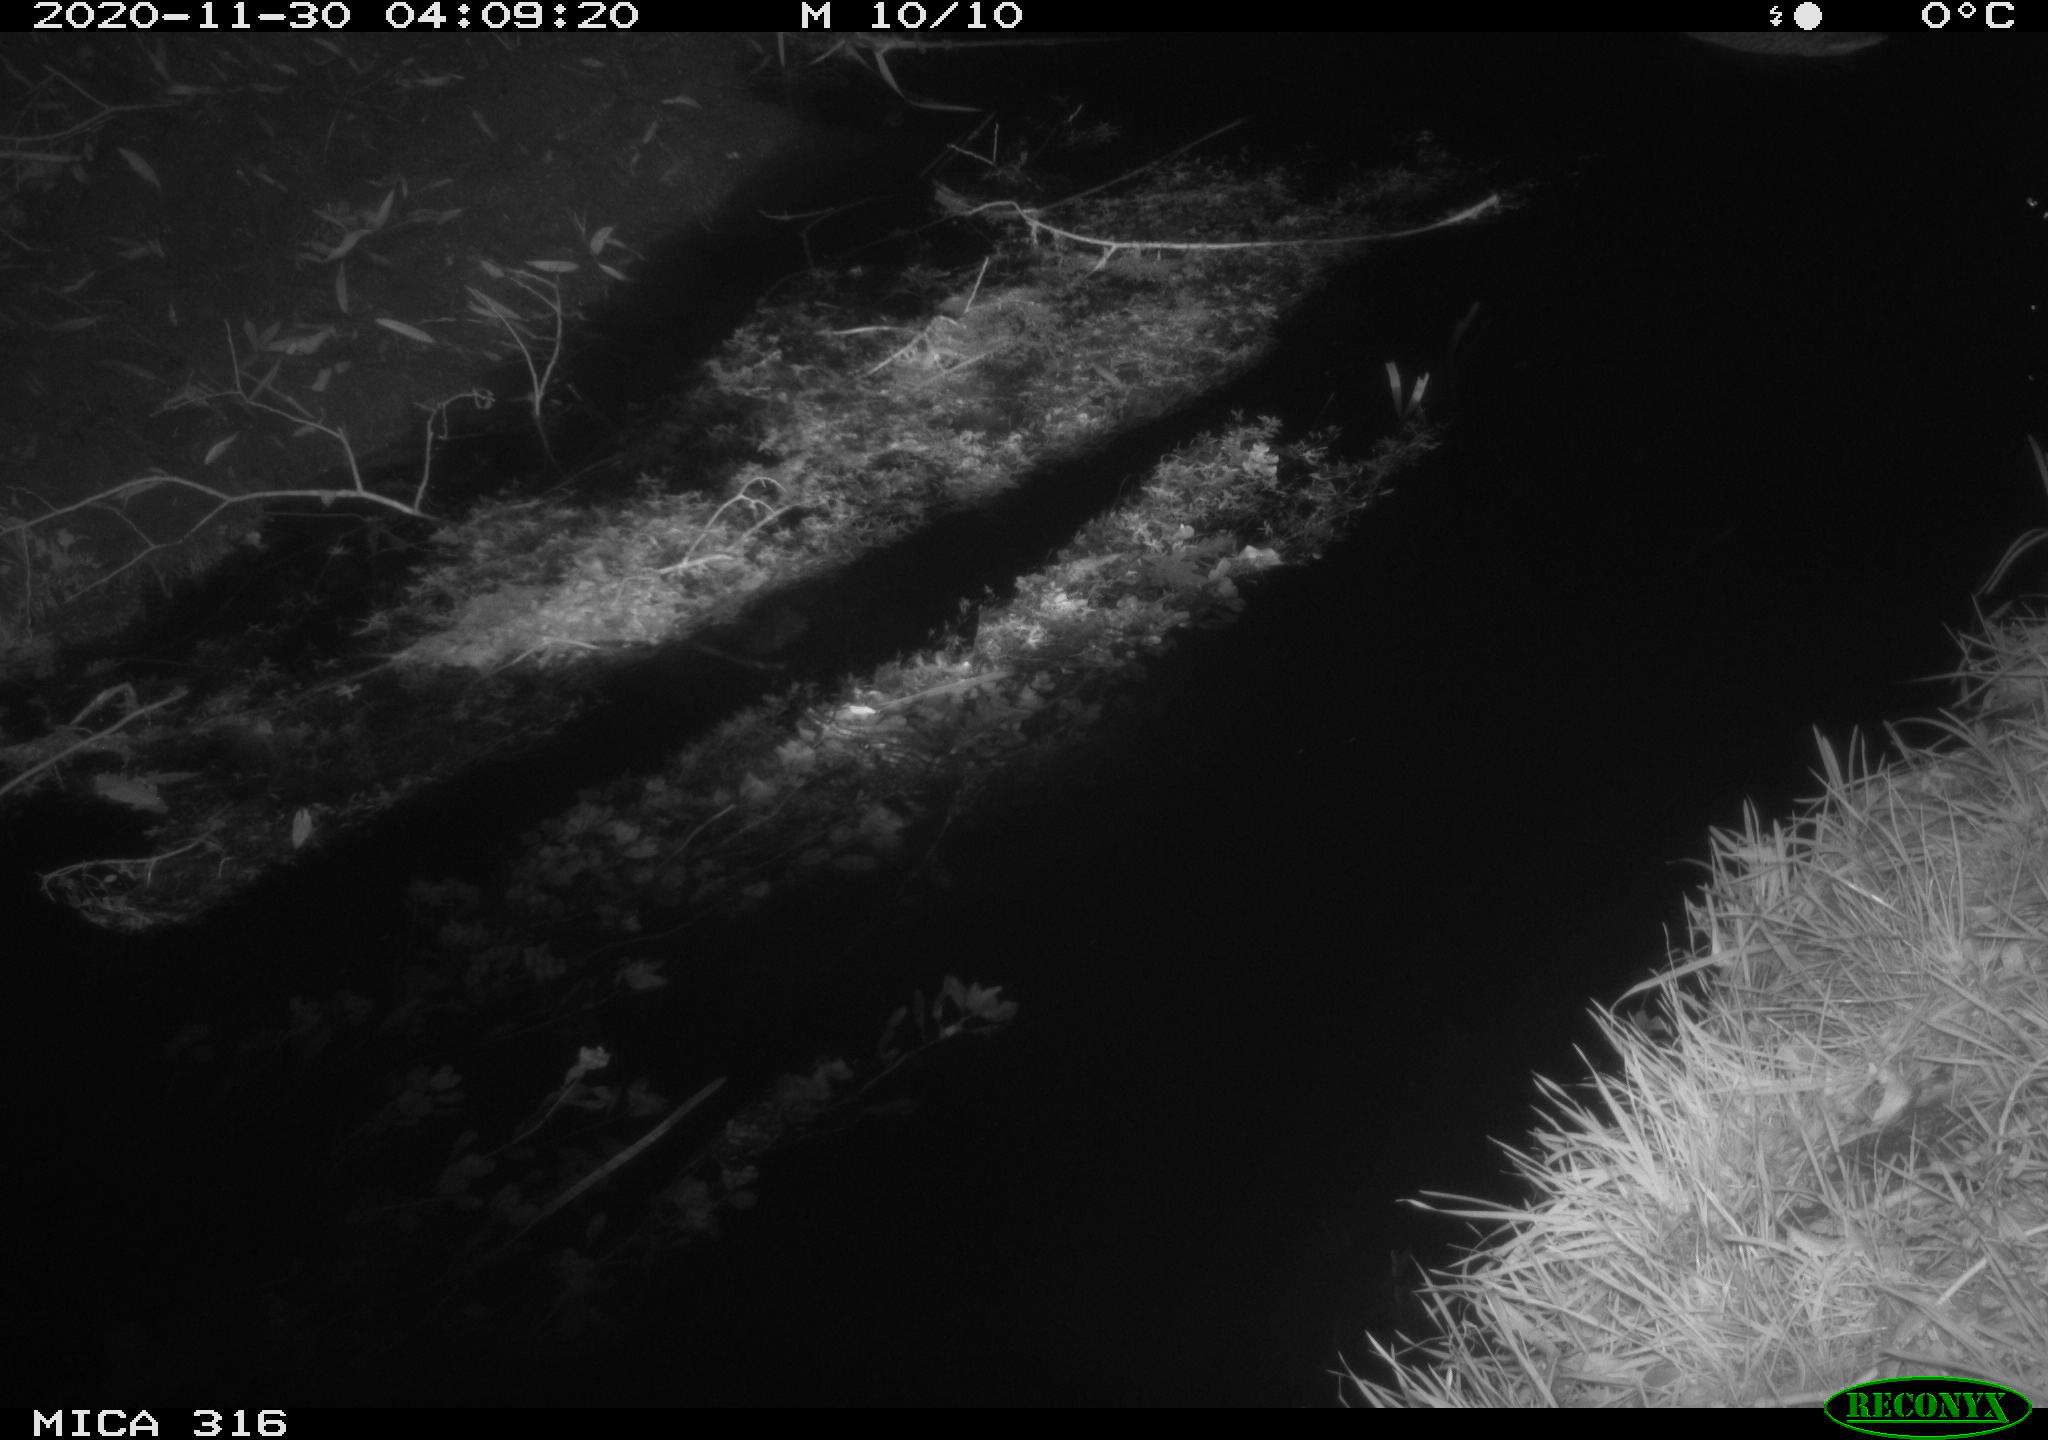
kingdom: Animalia
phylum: Chordata
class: Aves
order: Anseriformes
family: Anatidae
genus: Anas
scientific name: Anas platyrhynchos
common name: Mallard
